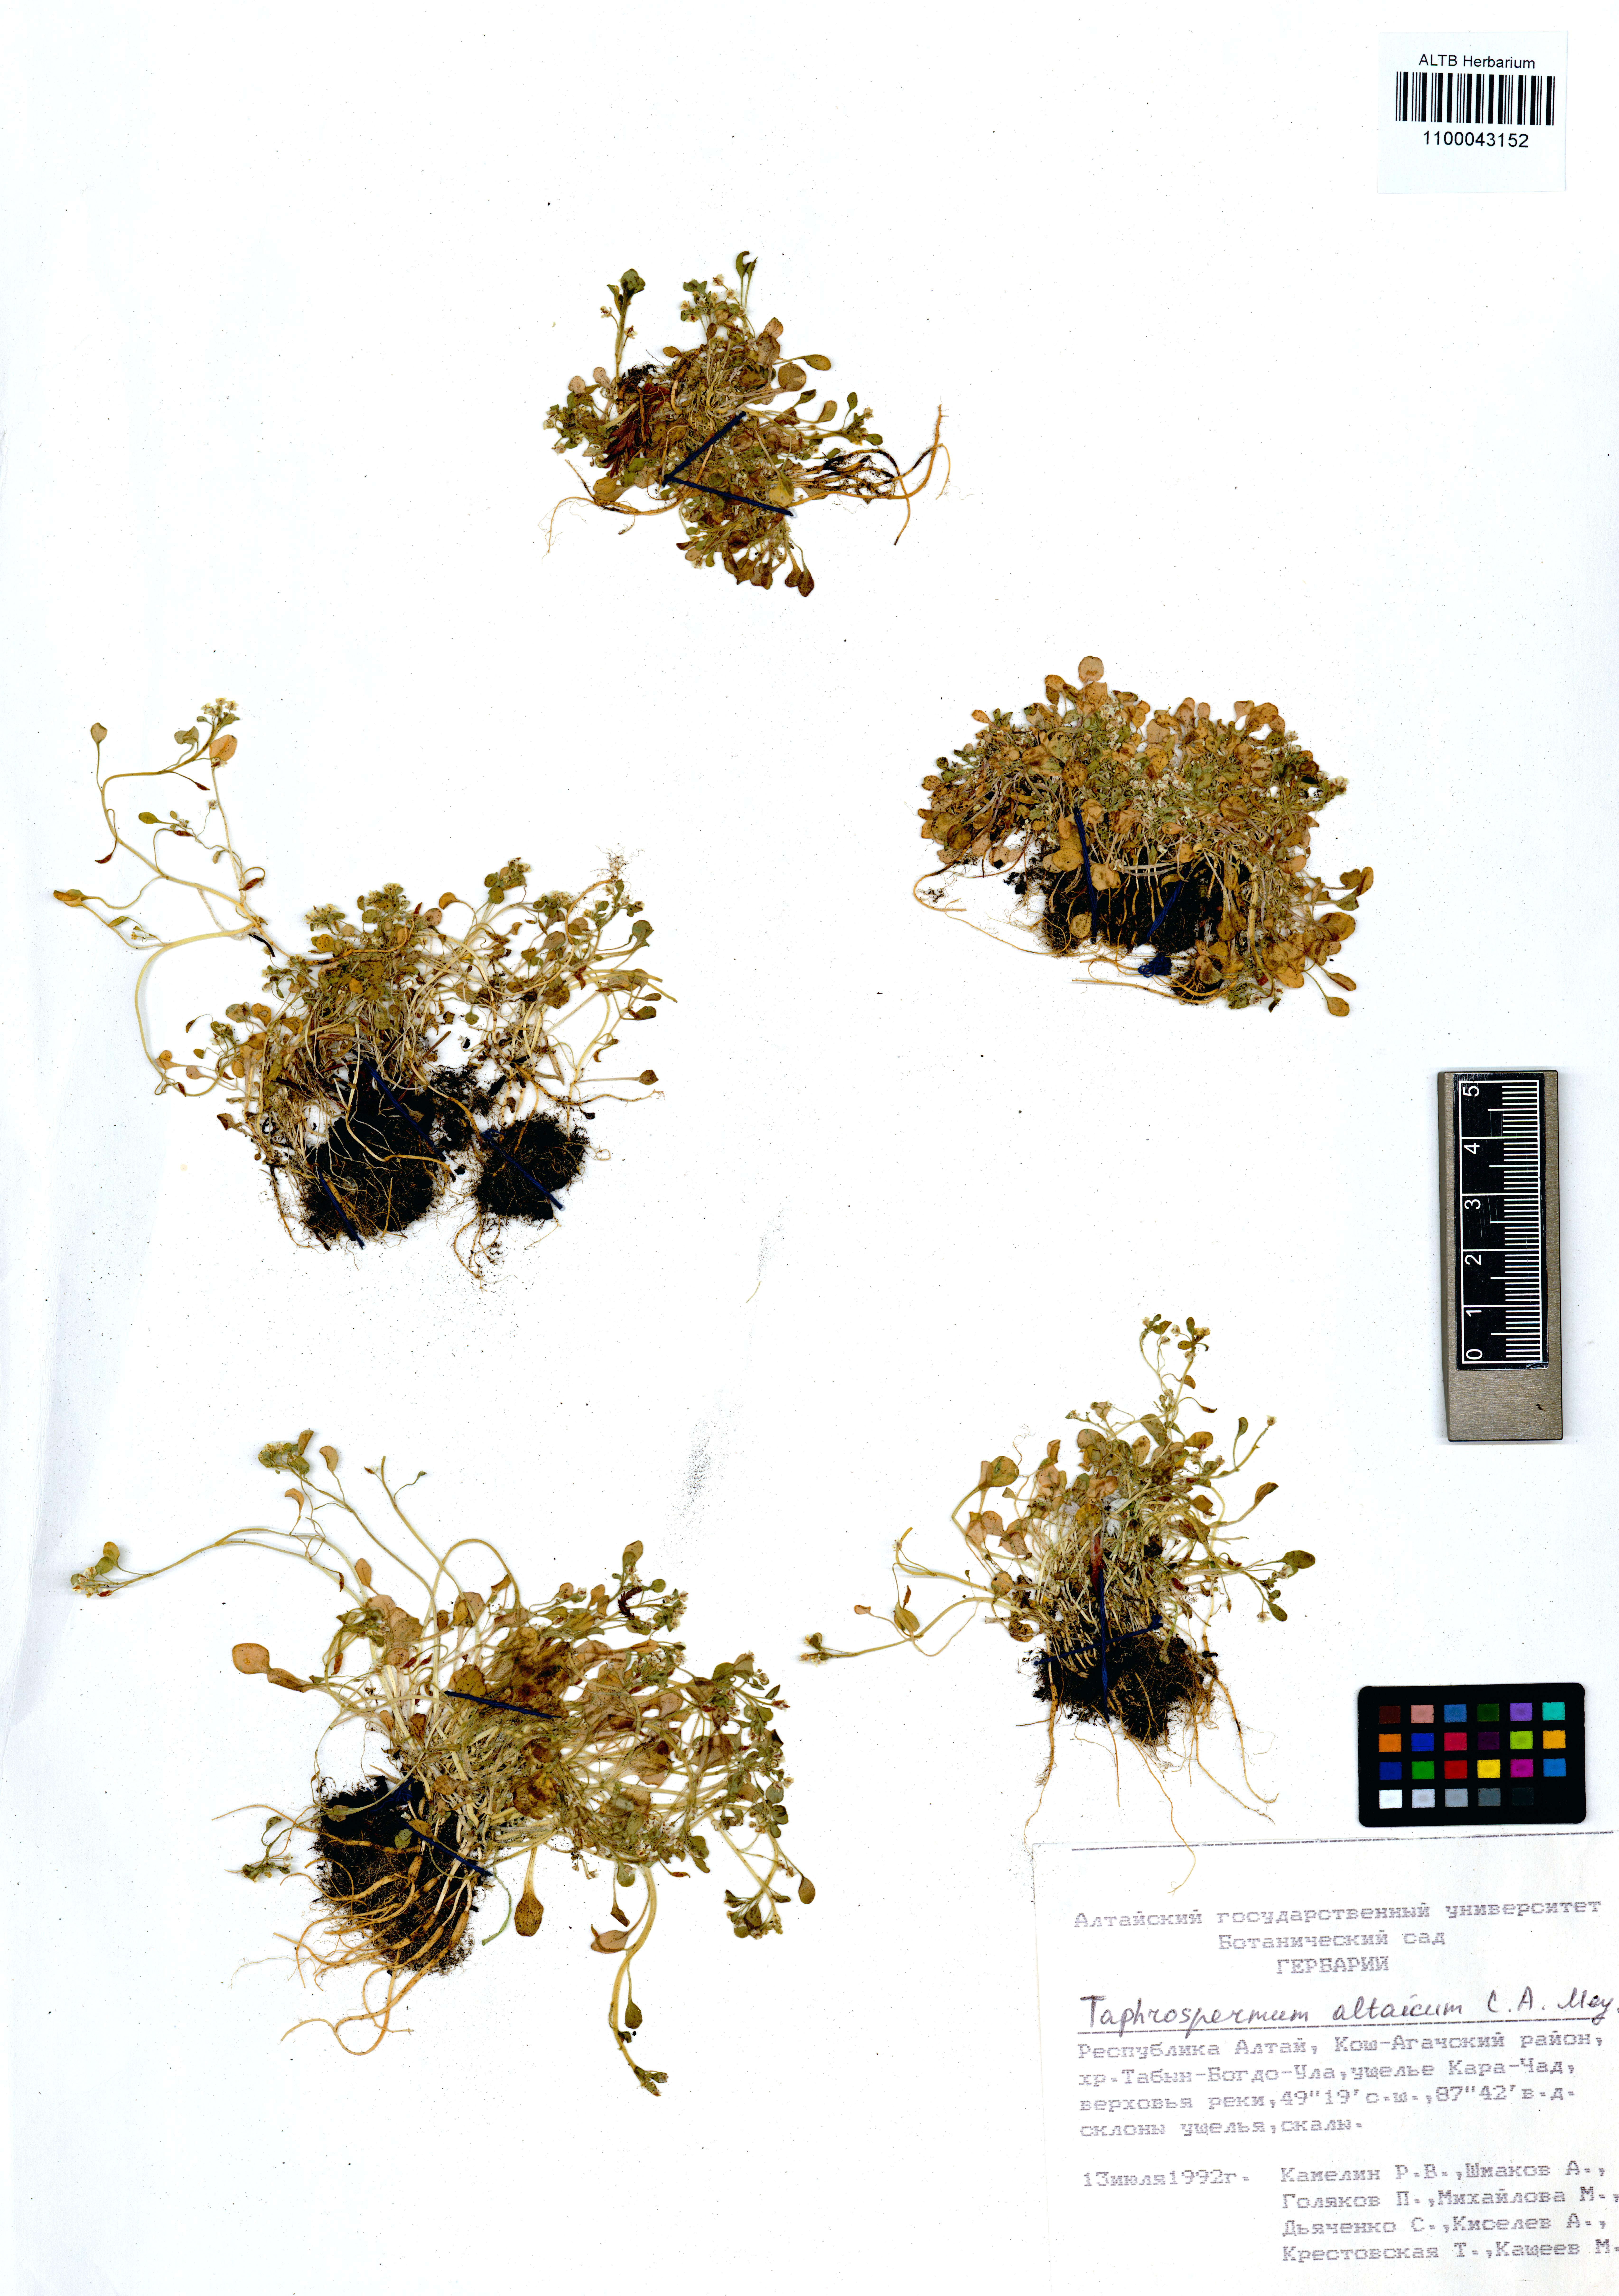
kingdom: Plantae
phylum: Tracheophyta
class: Magnoliopsida
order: Brassicales
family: Brassicaceae
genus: Eutrema
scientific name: Eutrema altaicum
